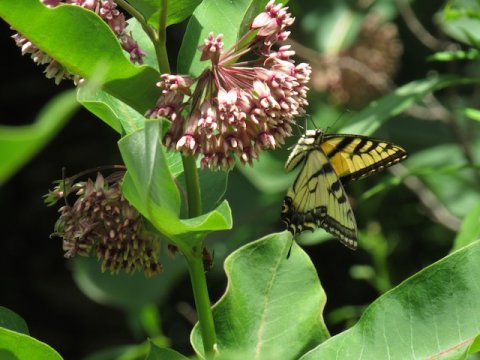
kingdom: Animalia
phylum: Arthropoda
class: Insecta
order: Lepidoptera
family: Papilionidae
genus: Pterourus
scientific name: Pterourus
